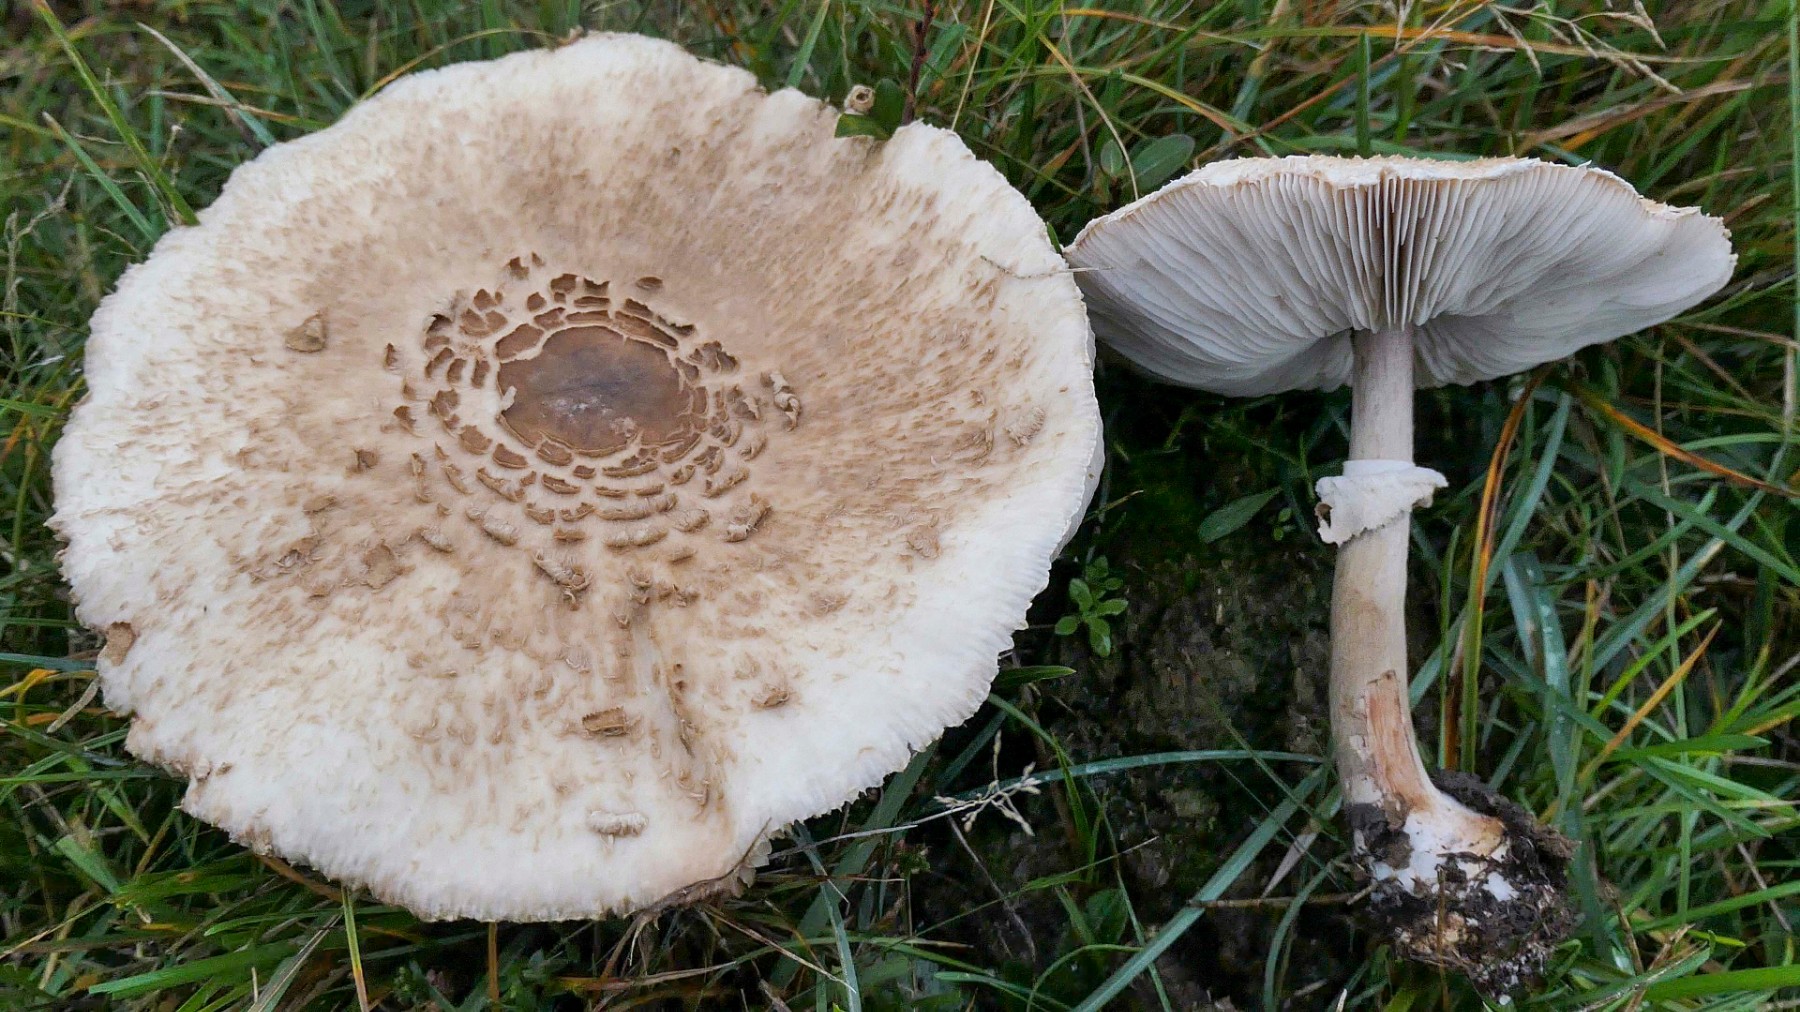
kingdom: Fungi
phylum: Basidiomycota
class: Agaricomycetes
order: Agaricales
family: Agaricaceae
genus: Chlorophyllum
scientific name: Chlorophyllum rhacodes
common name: ægte rabarberhat
